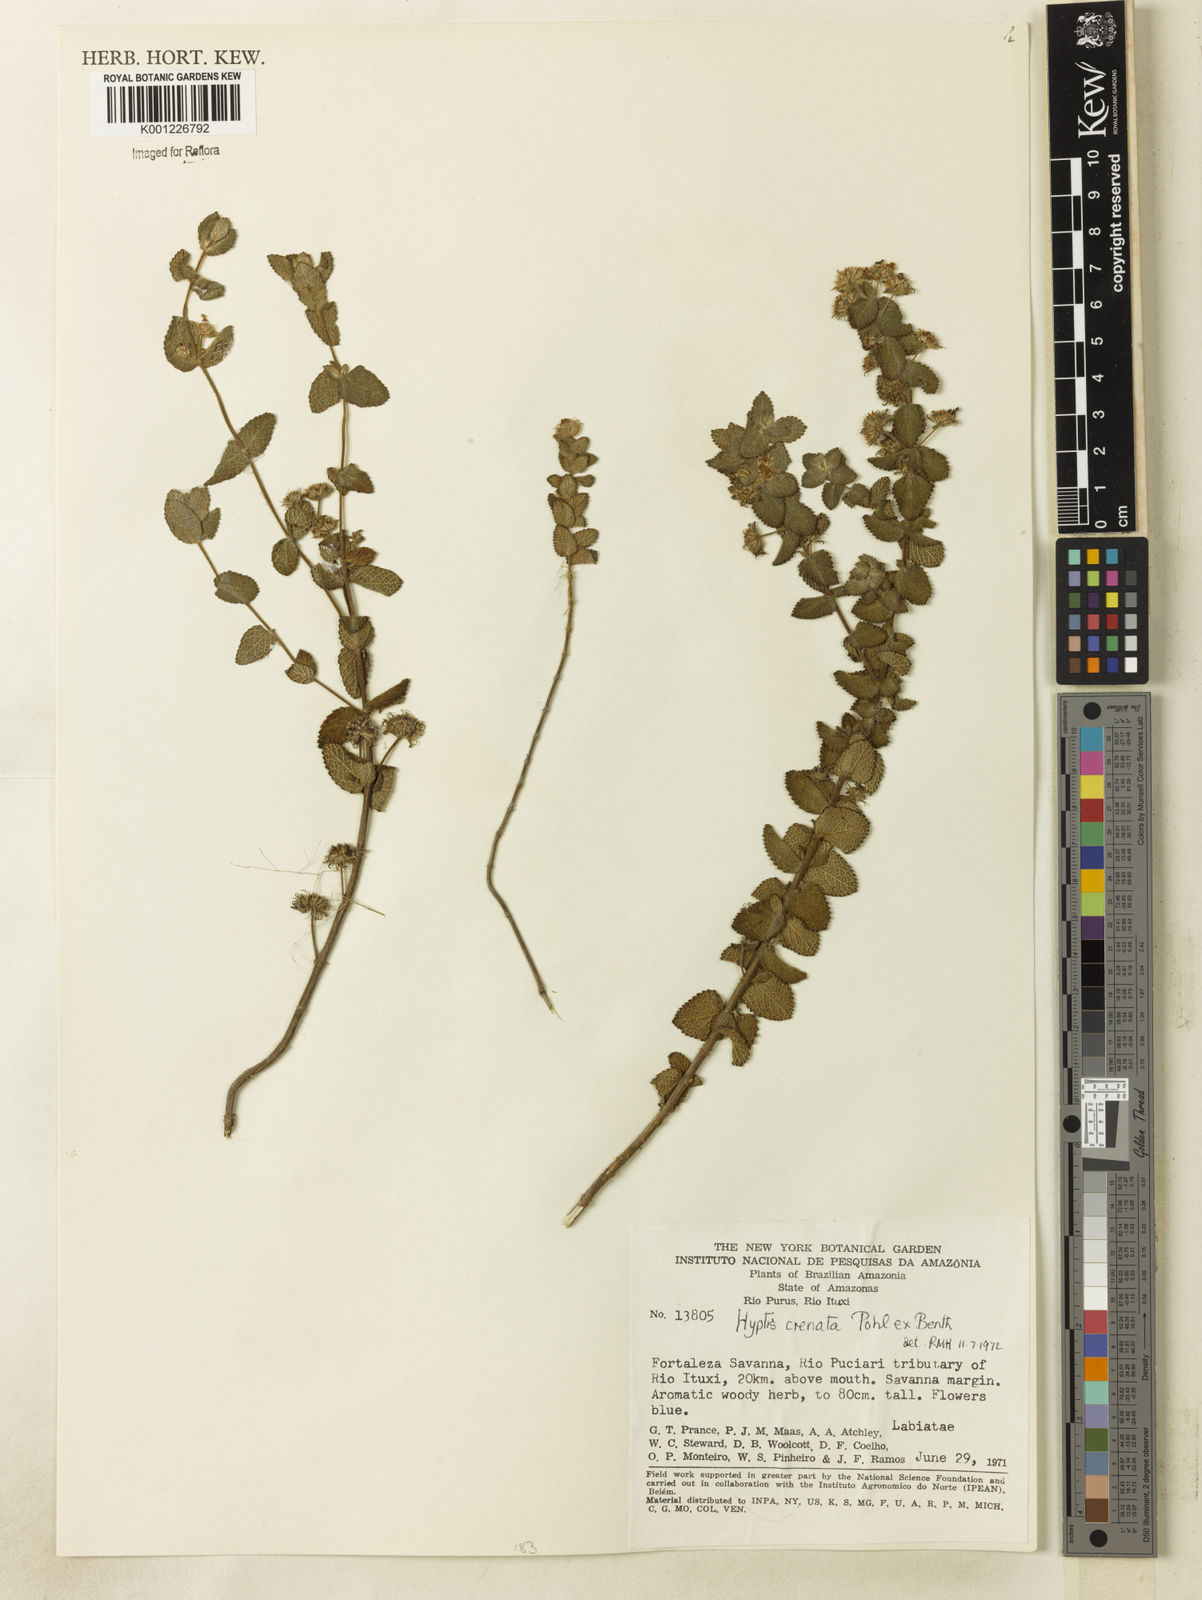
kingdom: Plantae
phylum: Tracheophyta
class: Magnoliopsida
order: Lamiales
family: Lamiaceae
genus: Hyptis
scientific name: Hyptis crenata
